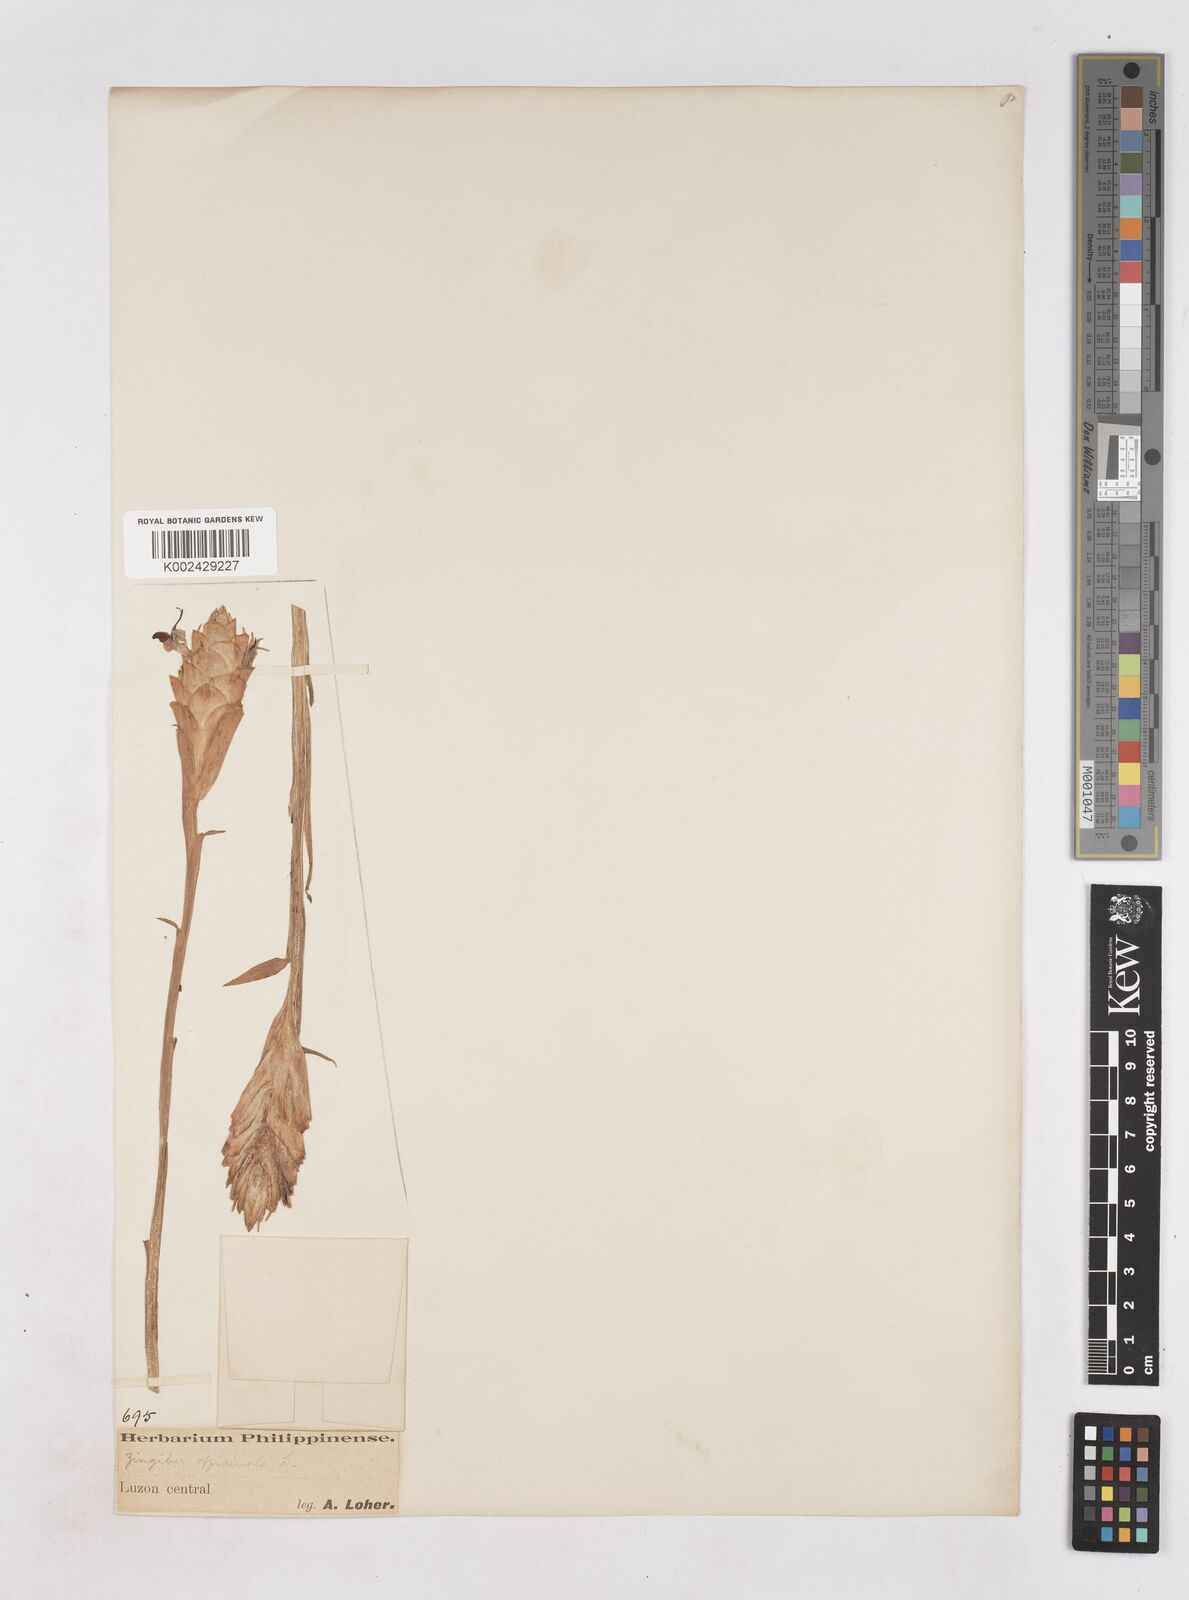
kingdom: Plantae
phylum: Tracheophyta
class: Liliopsida
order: Zingiberales
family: Zingiberaceae
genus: Zingiber
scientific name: Zingiber officinale
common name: Ginger
